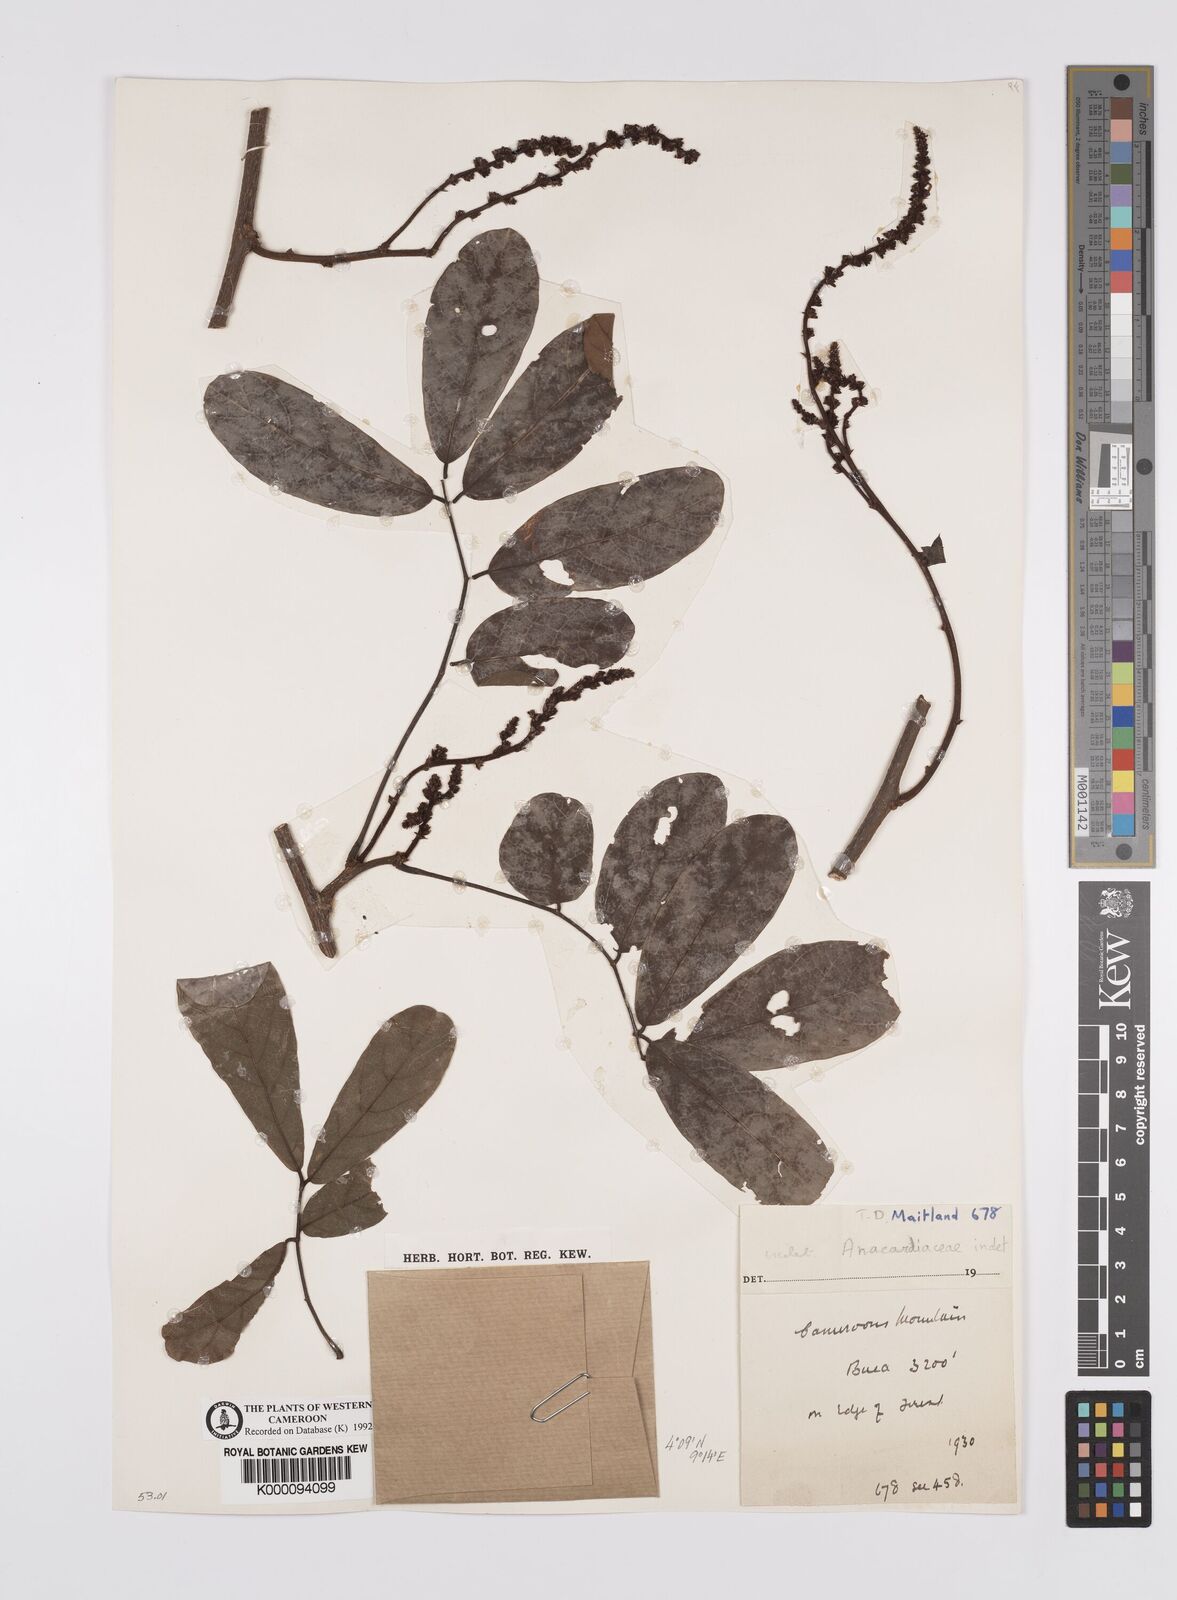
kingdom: Plantae
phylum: Tracheophyta
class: Magnoliopsida
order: Sapindales
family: Anacardiaceae
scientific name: Anacardiaceae
